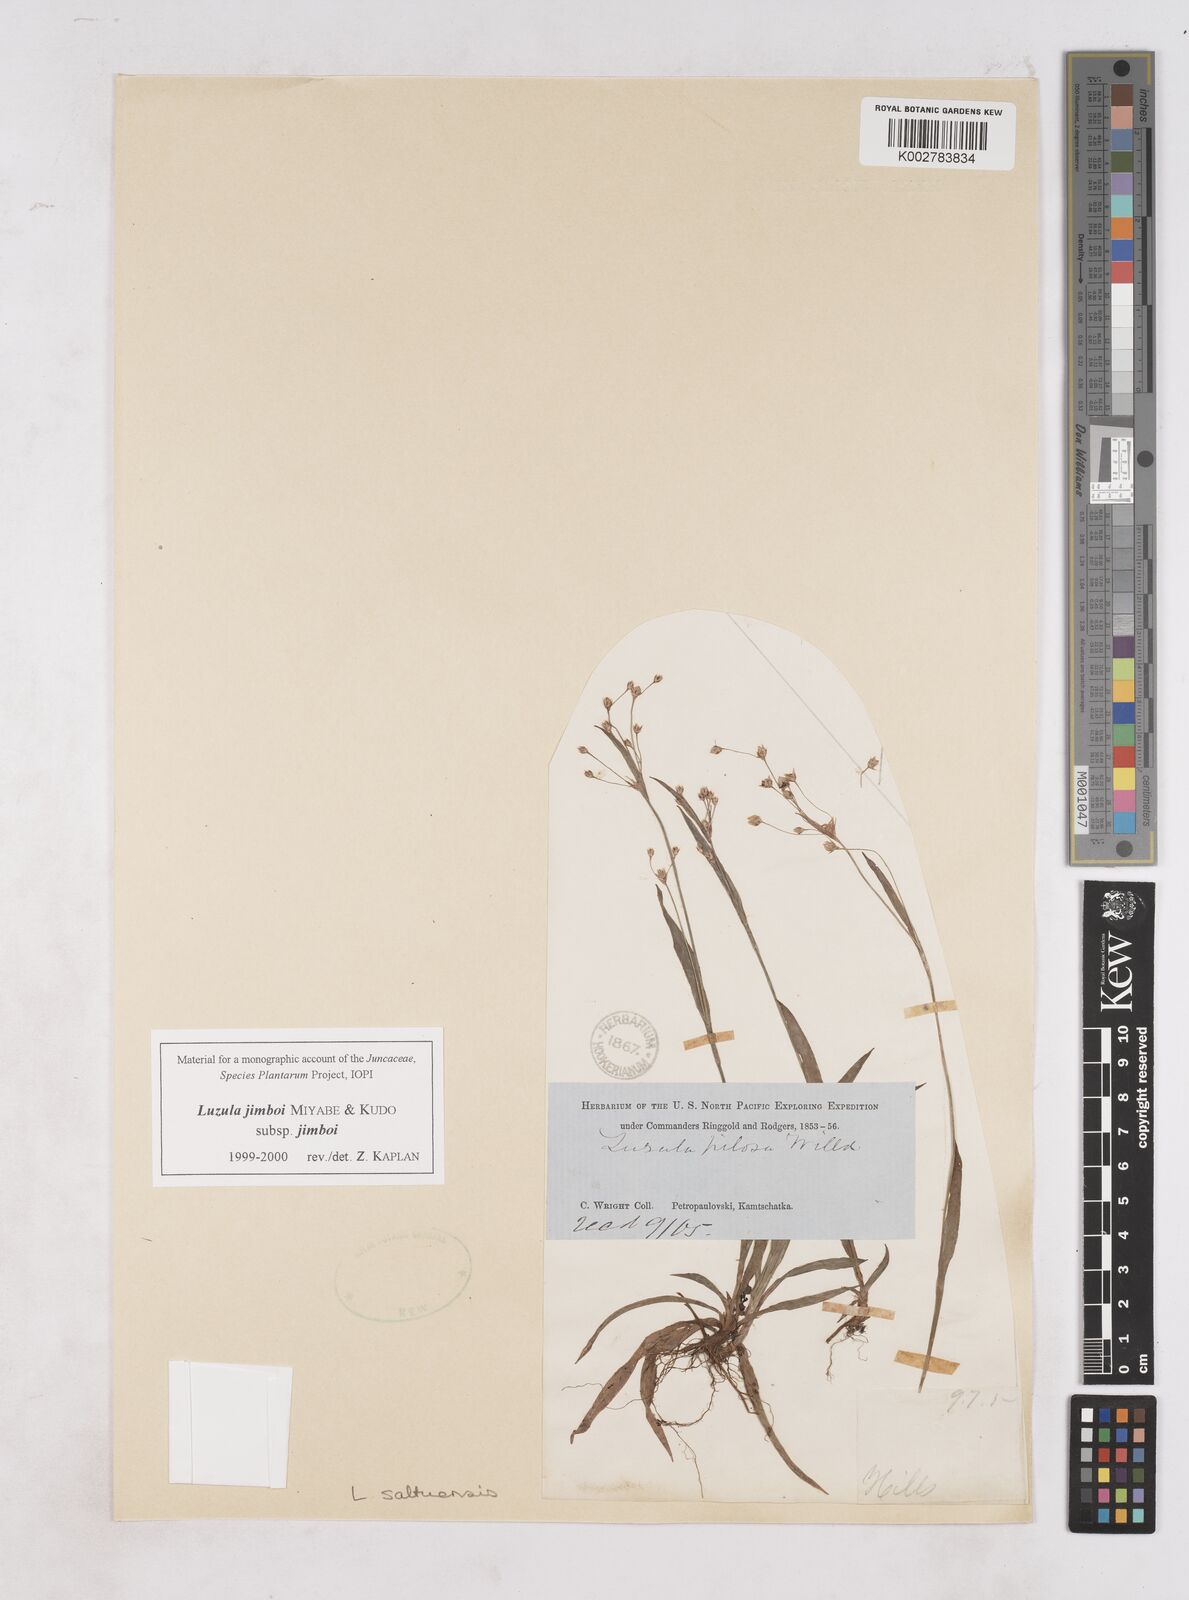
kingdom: Plantae
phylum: Tracheophyta
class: Liliopsida
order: Poales
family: Juncaceae
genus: Luzula
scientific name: Luzula jimboi
